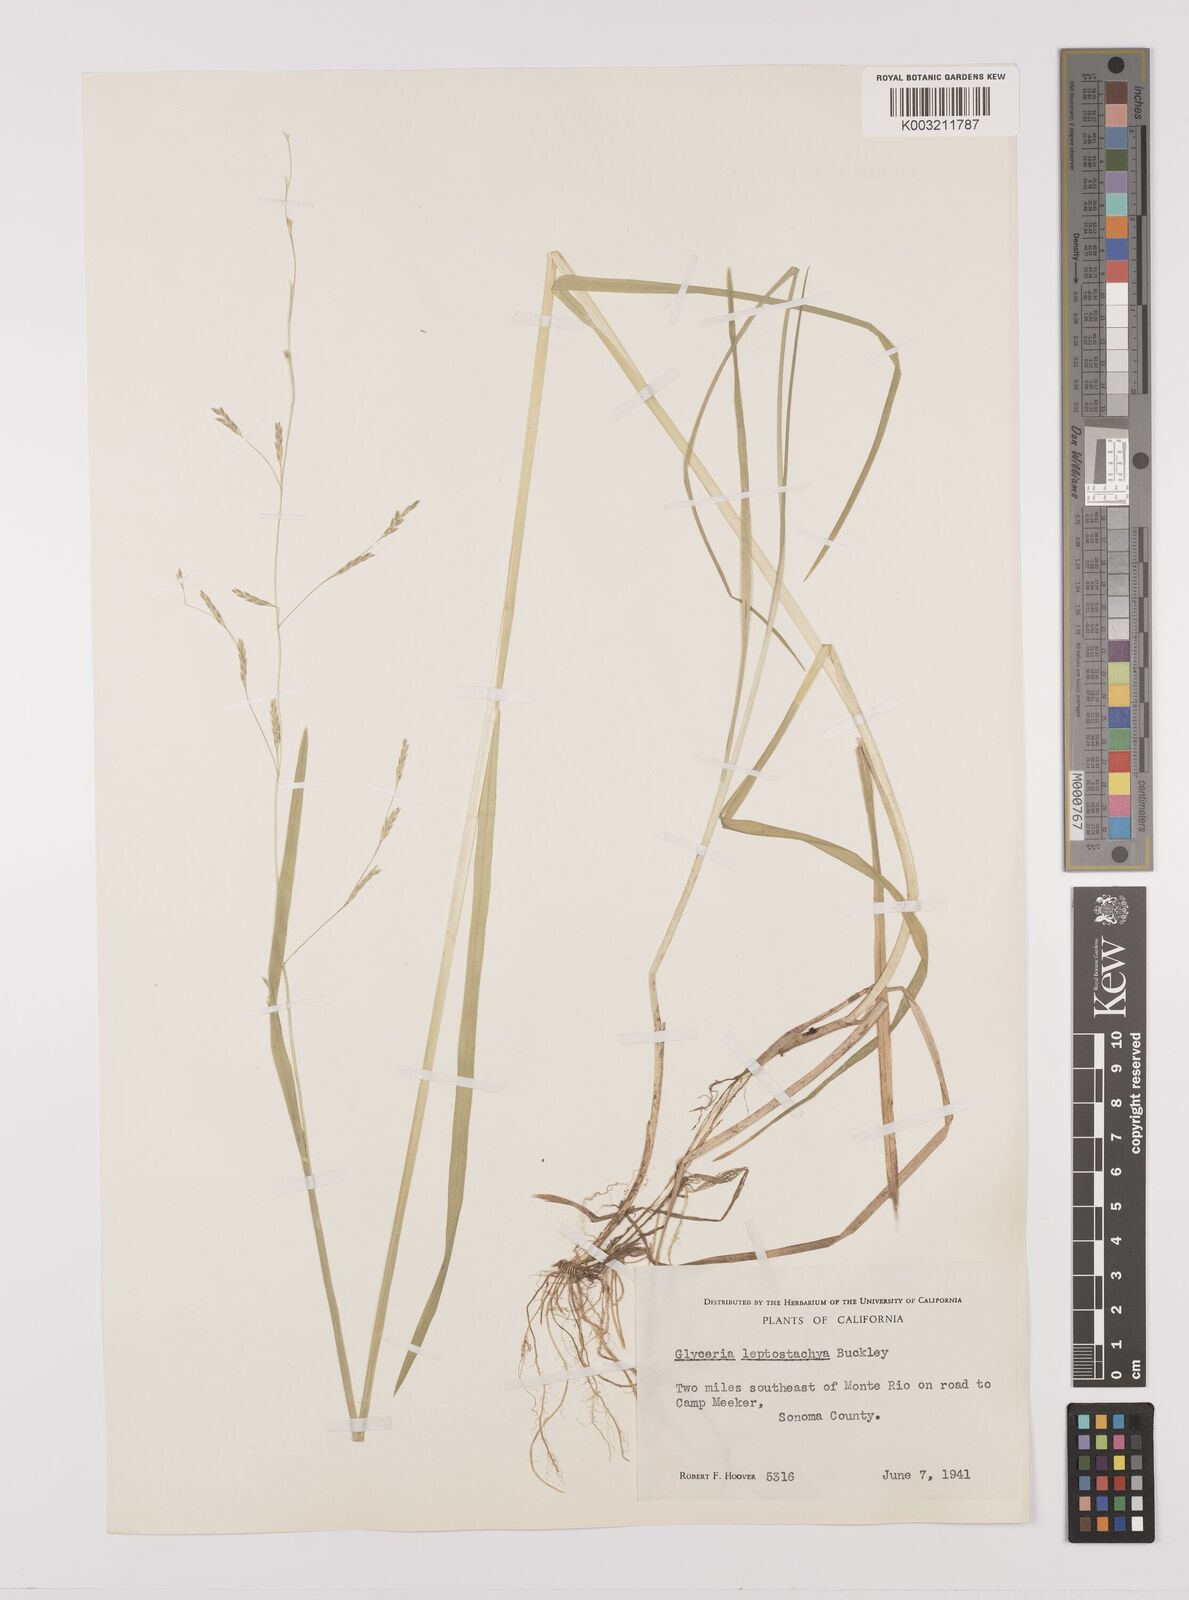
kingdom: Plantae
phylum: Tracheophyta
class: Liliopsida
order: Poales
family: Poaceae
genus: Glyceria
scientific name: Glyceria leptostachya
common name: Davy's mannagrass
